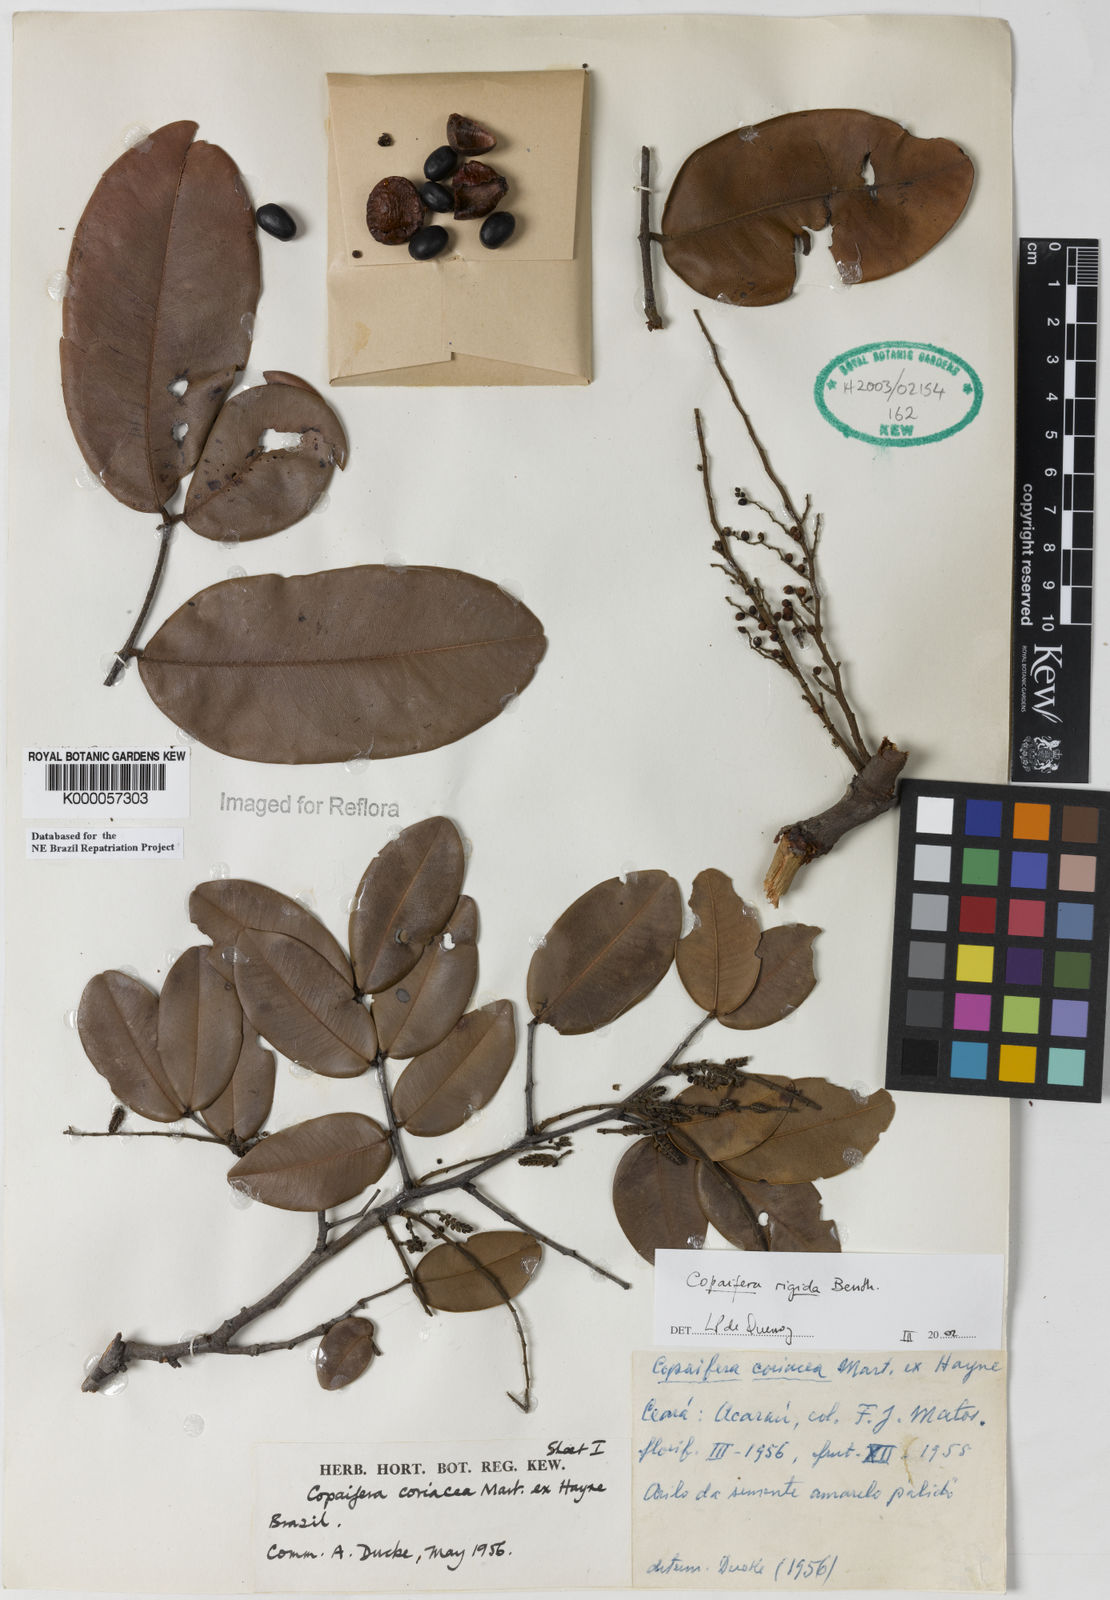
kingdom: Plantae
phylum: Tracheophyta
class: Magnoliopsida
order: Fabales
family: Fabaceae
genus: Copaifera
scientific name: Copaifera martii
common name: Copaiba
